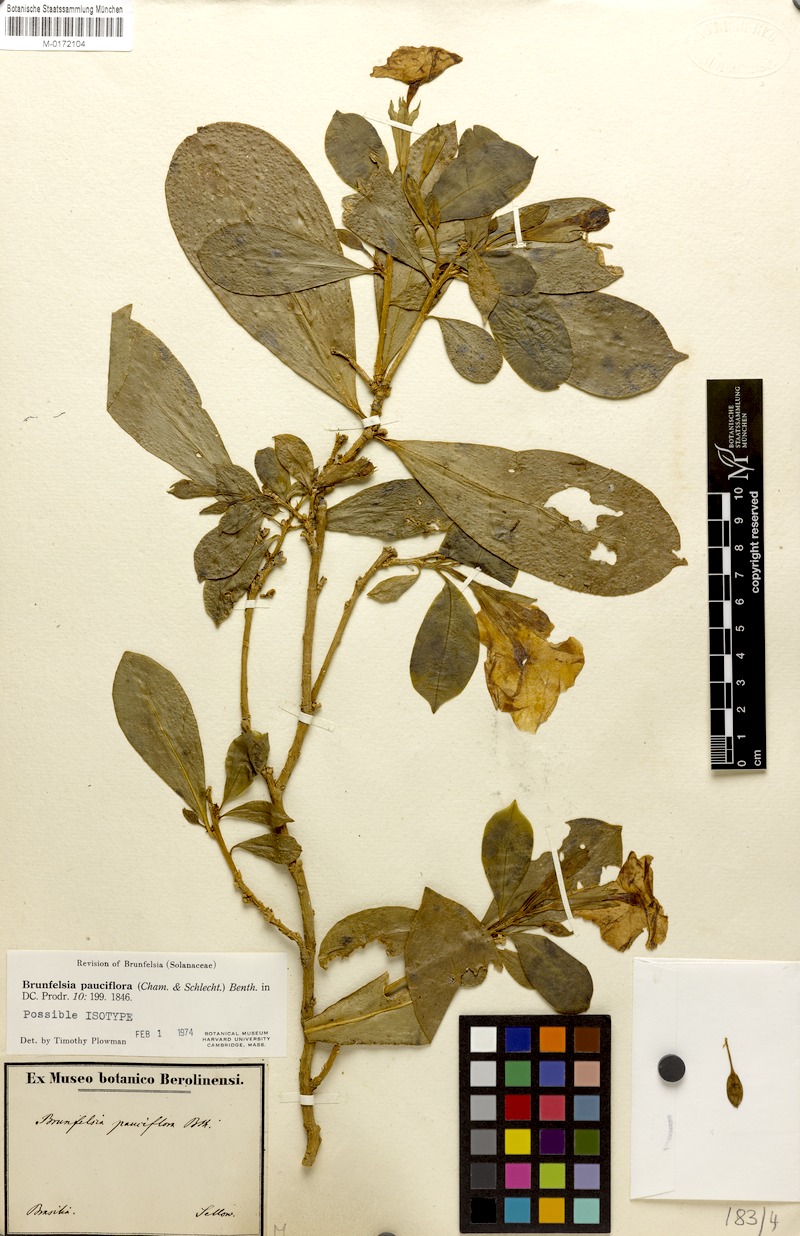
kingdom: Plantae
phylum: Tracheophyta
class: Magnoliopsida
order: Solanales
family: Solanaceae
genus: Brunfelsia
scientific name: Brunfelsia pauciflora
